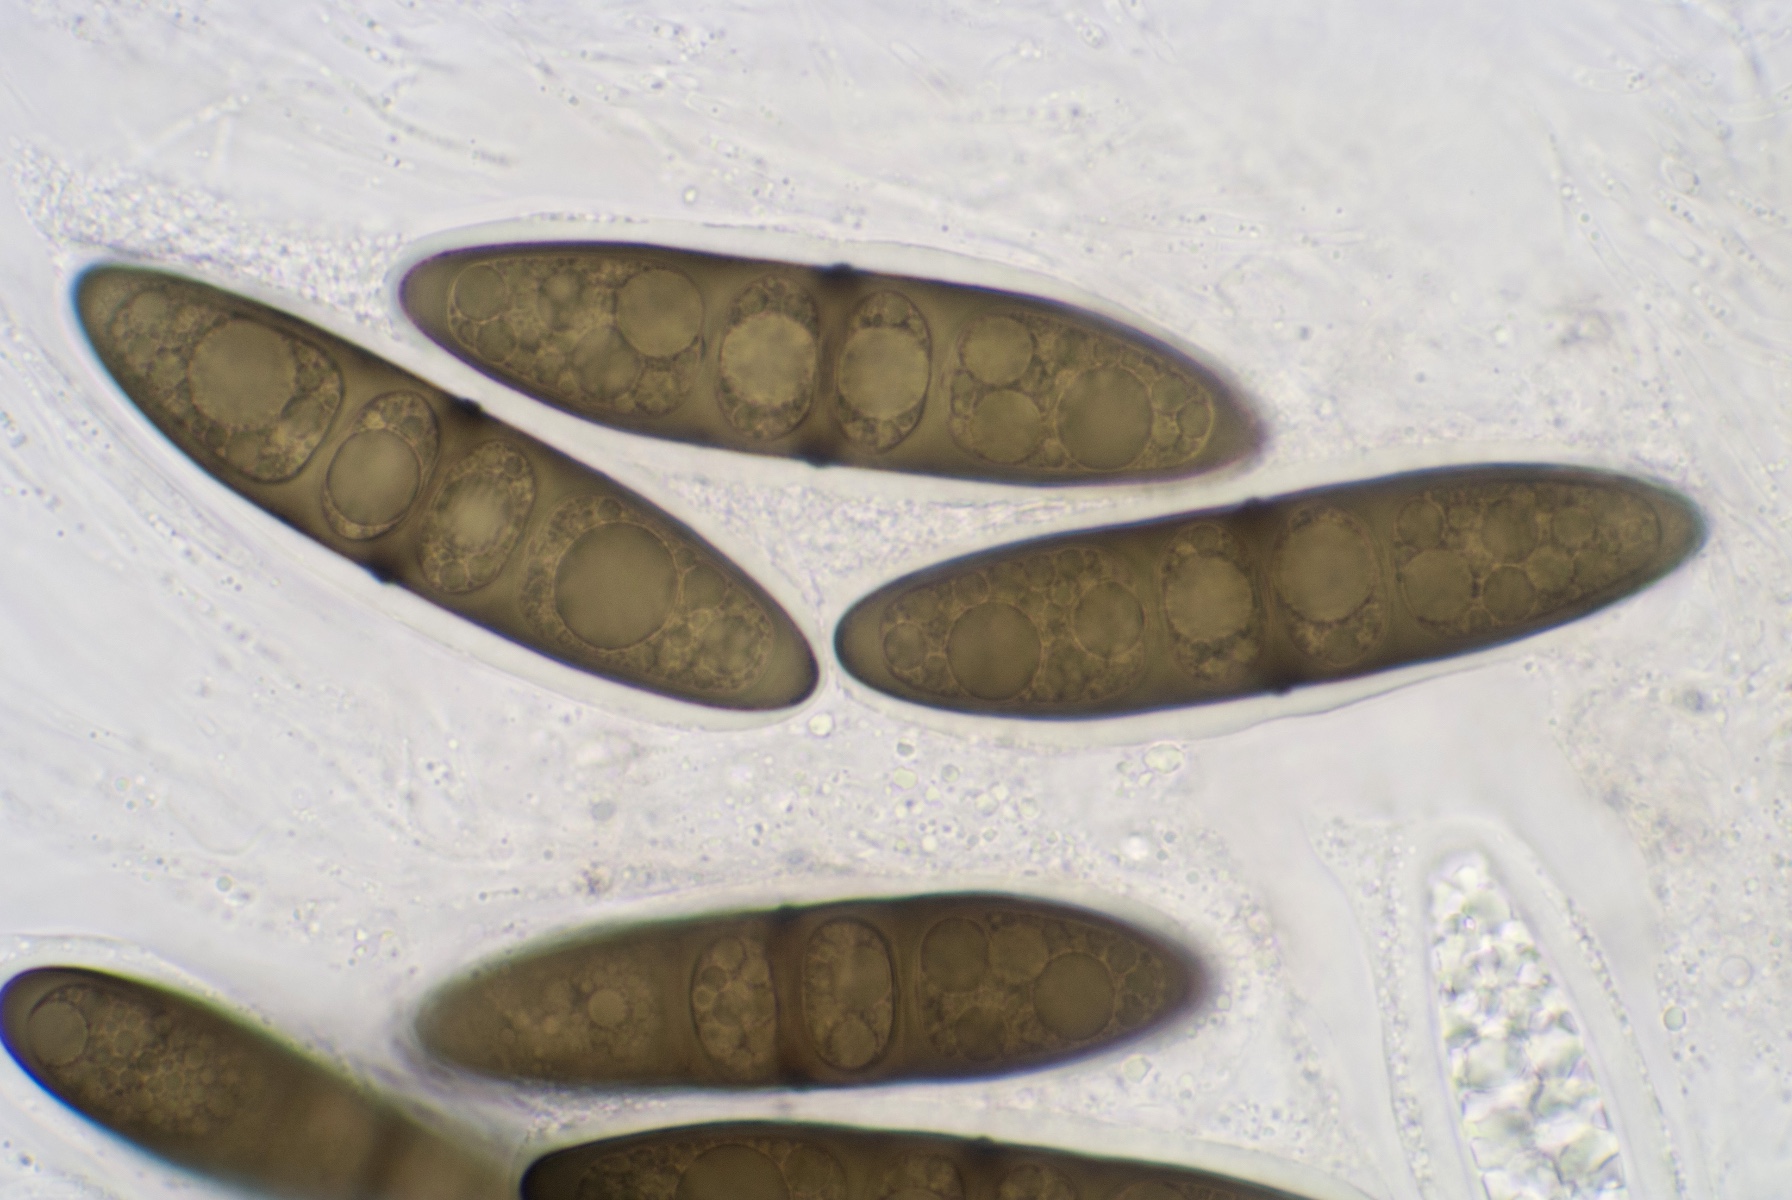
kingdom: Fungi
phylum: Ascomycota
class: Dothideomycetes
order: Pleosporales
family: Massariaceae
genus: Massaria
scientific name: Massaria inquinans
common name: ahorn-kulvulkan
